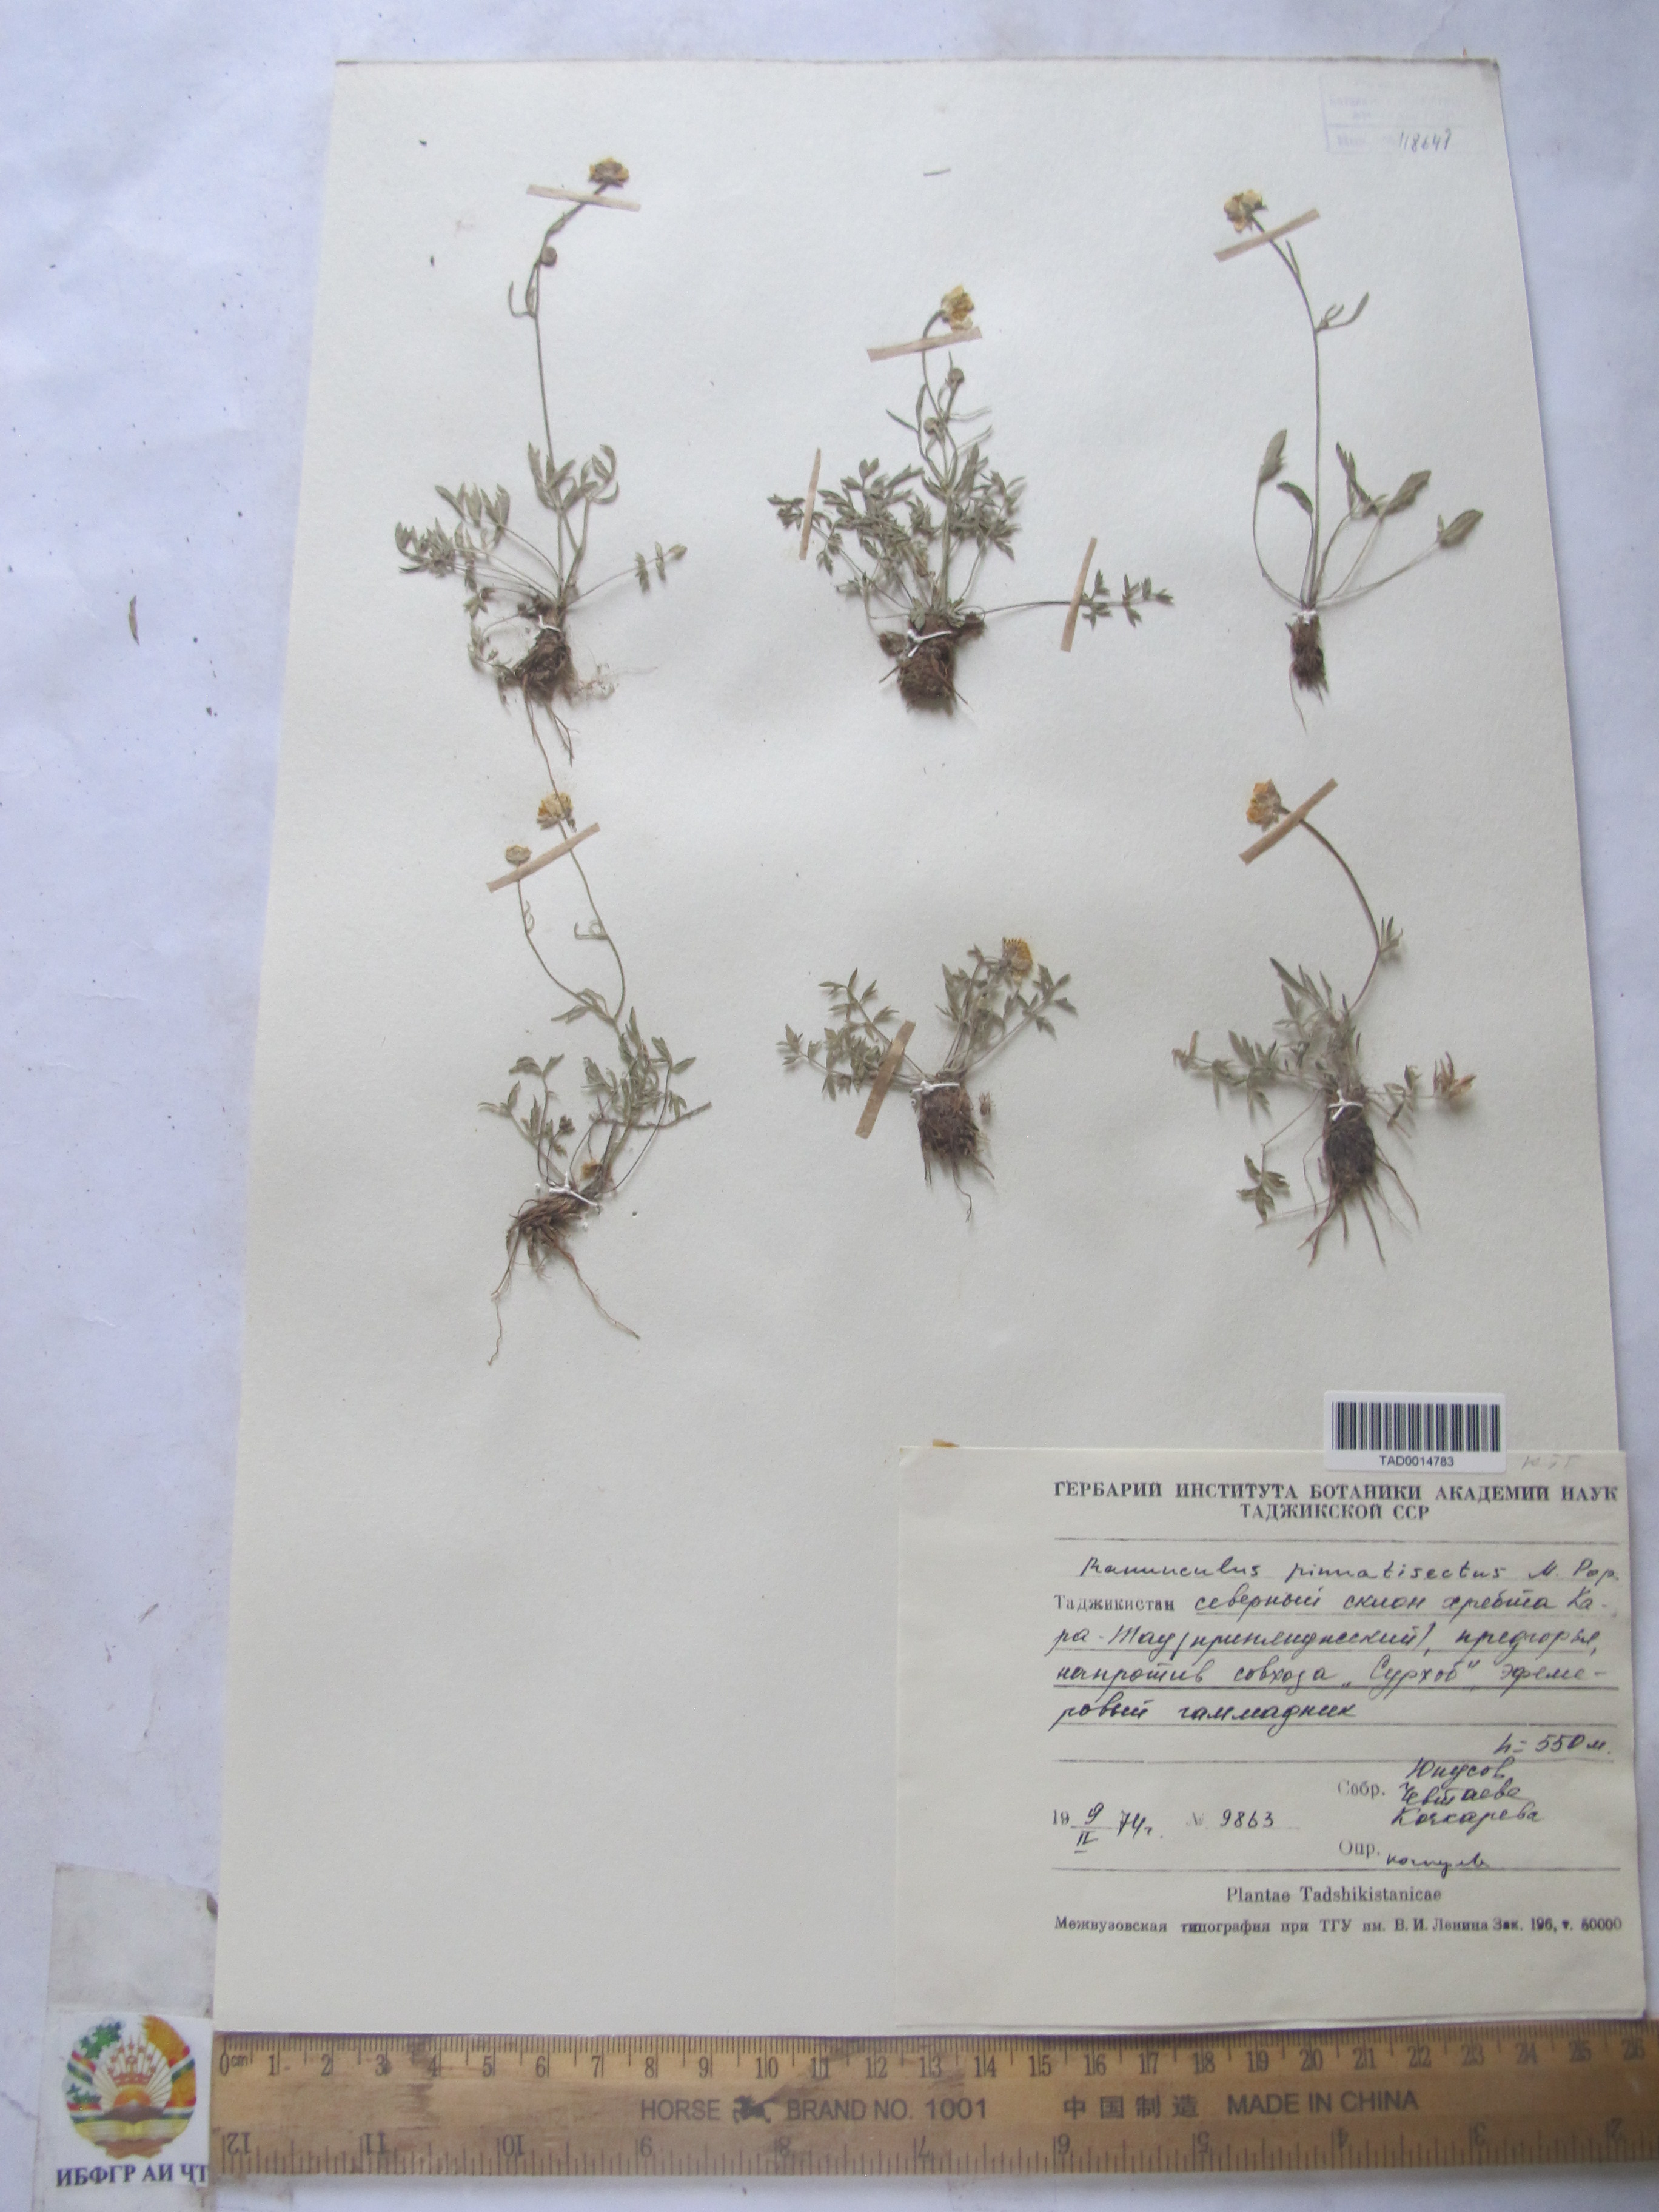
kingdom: Plantae
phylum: Tracheophyta
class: Magnoliopsida
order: Ranunculales
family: Ranunculaceae
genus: Ranunculus
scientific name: Ranunculus pinnatisectus
